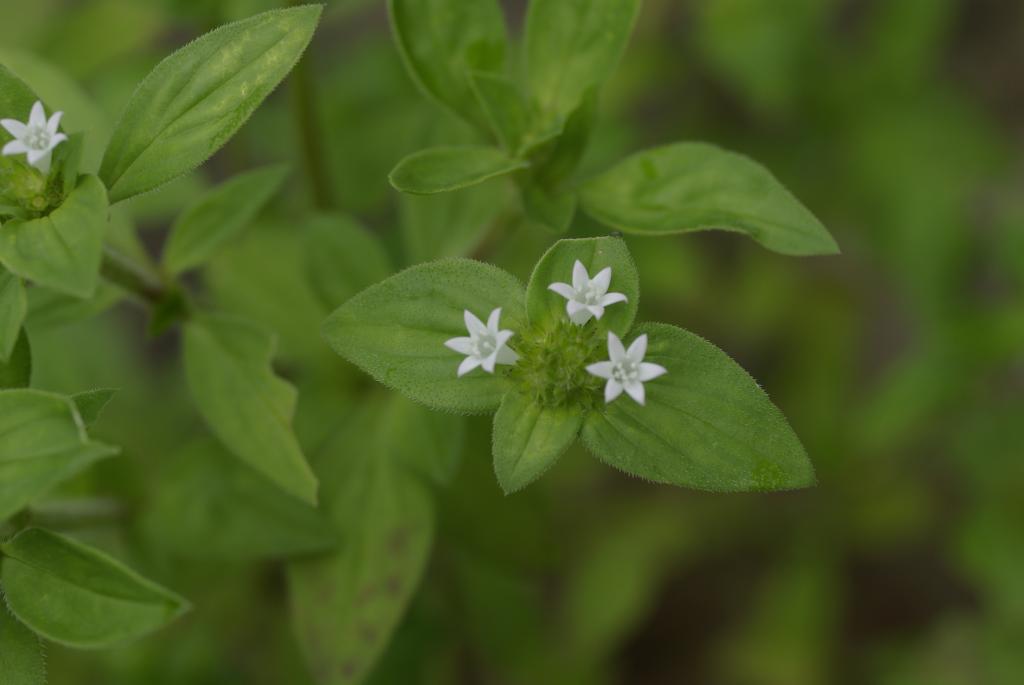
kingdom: Plantae
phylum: Tracheophyta
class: Magnoliopsida
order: Gentianales
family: Rubiaceae
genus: Richardia
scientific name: Richardia scabra
